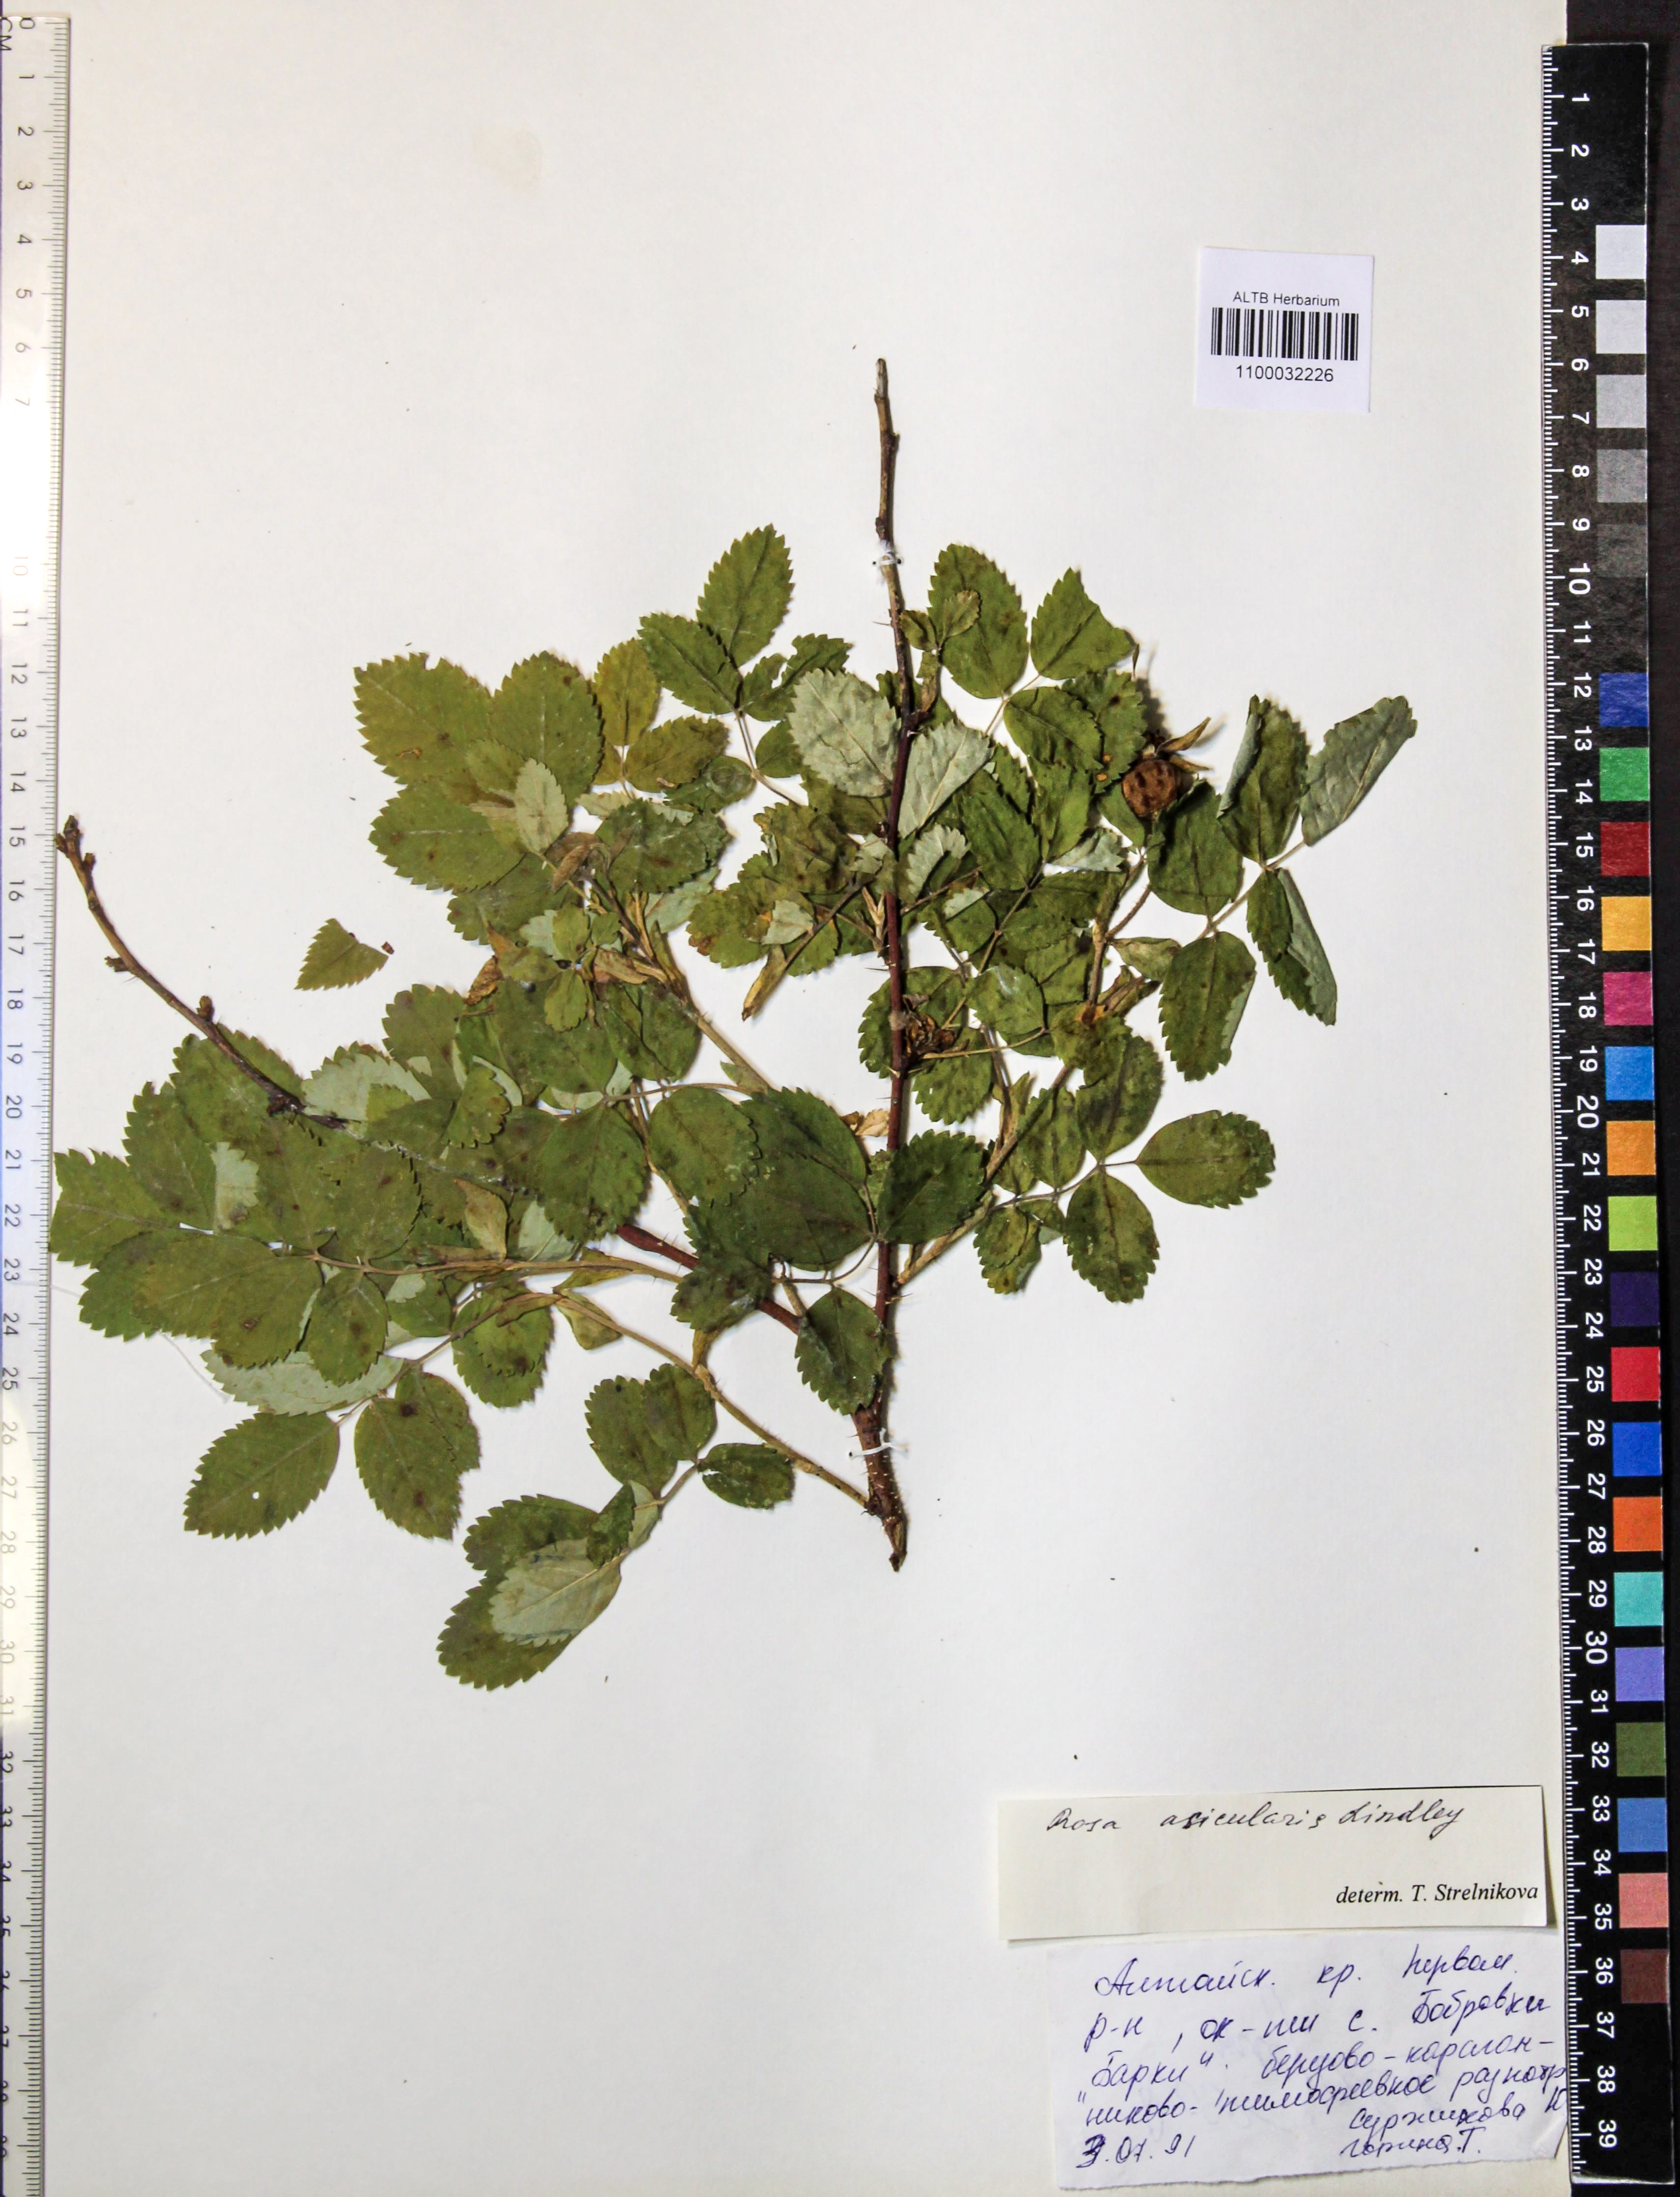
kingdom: Plantae
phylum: Tracheophyta
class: Magnoliopsida
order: Rosales
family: Rosaceae
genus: Rosa
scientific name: Rosa acicularis
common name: Prickly rose
